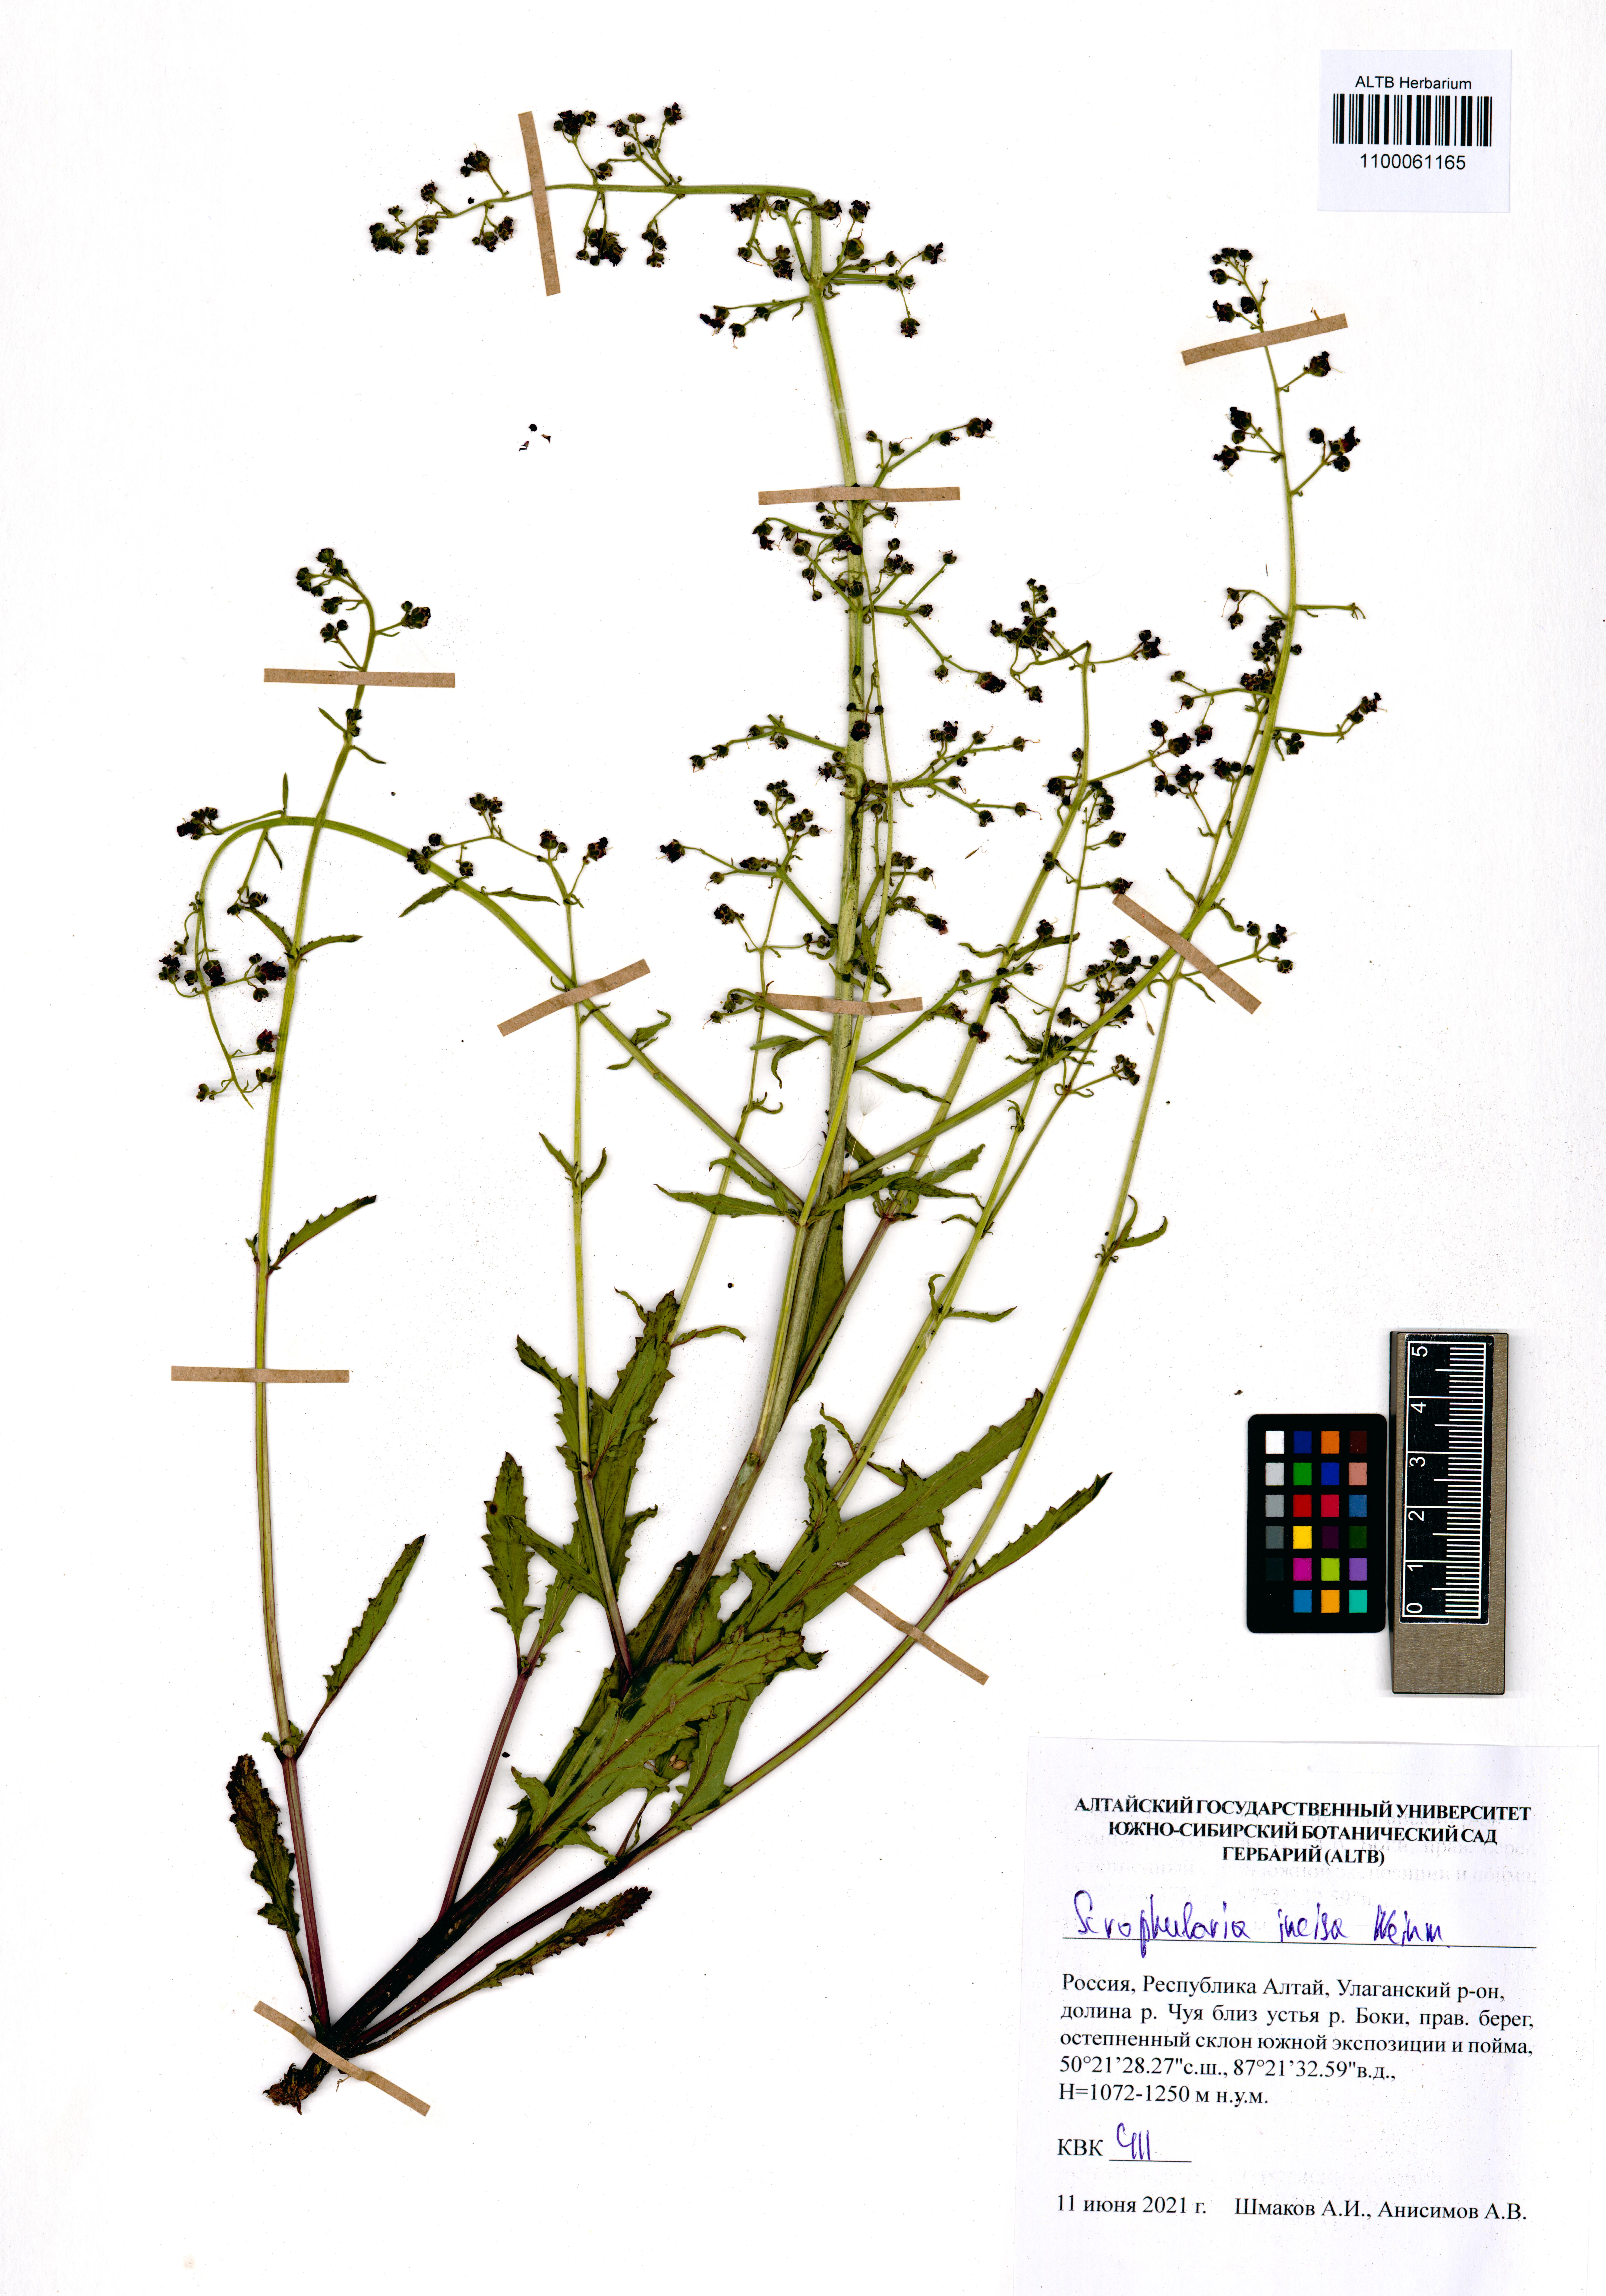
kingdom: Plantae
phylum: Tracheophyta
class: Magnoliopsida
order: Lamiales
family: Scrophulariaceae
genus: Scrophularia
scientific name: Scrophularia incisa
